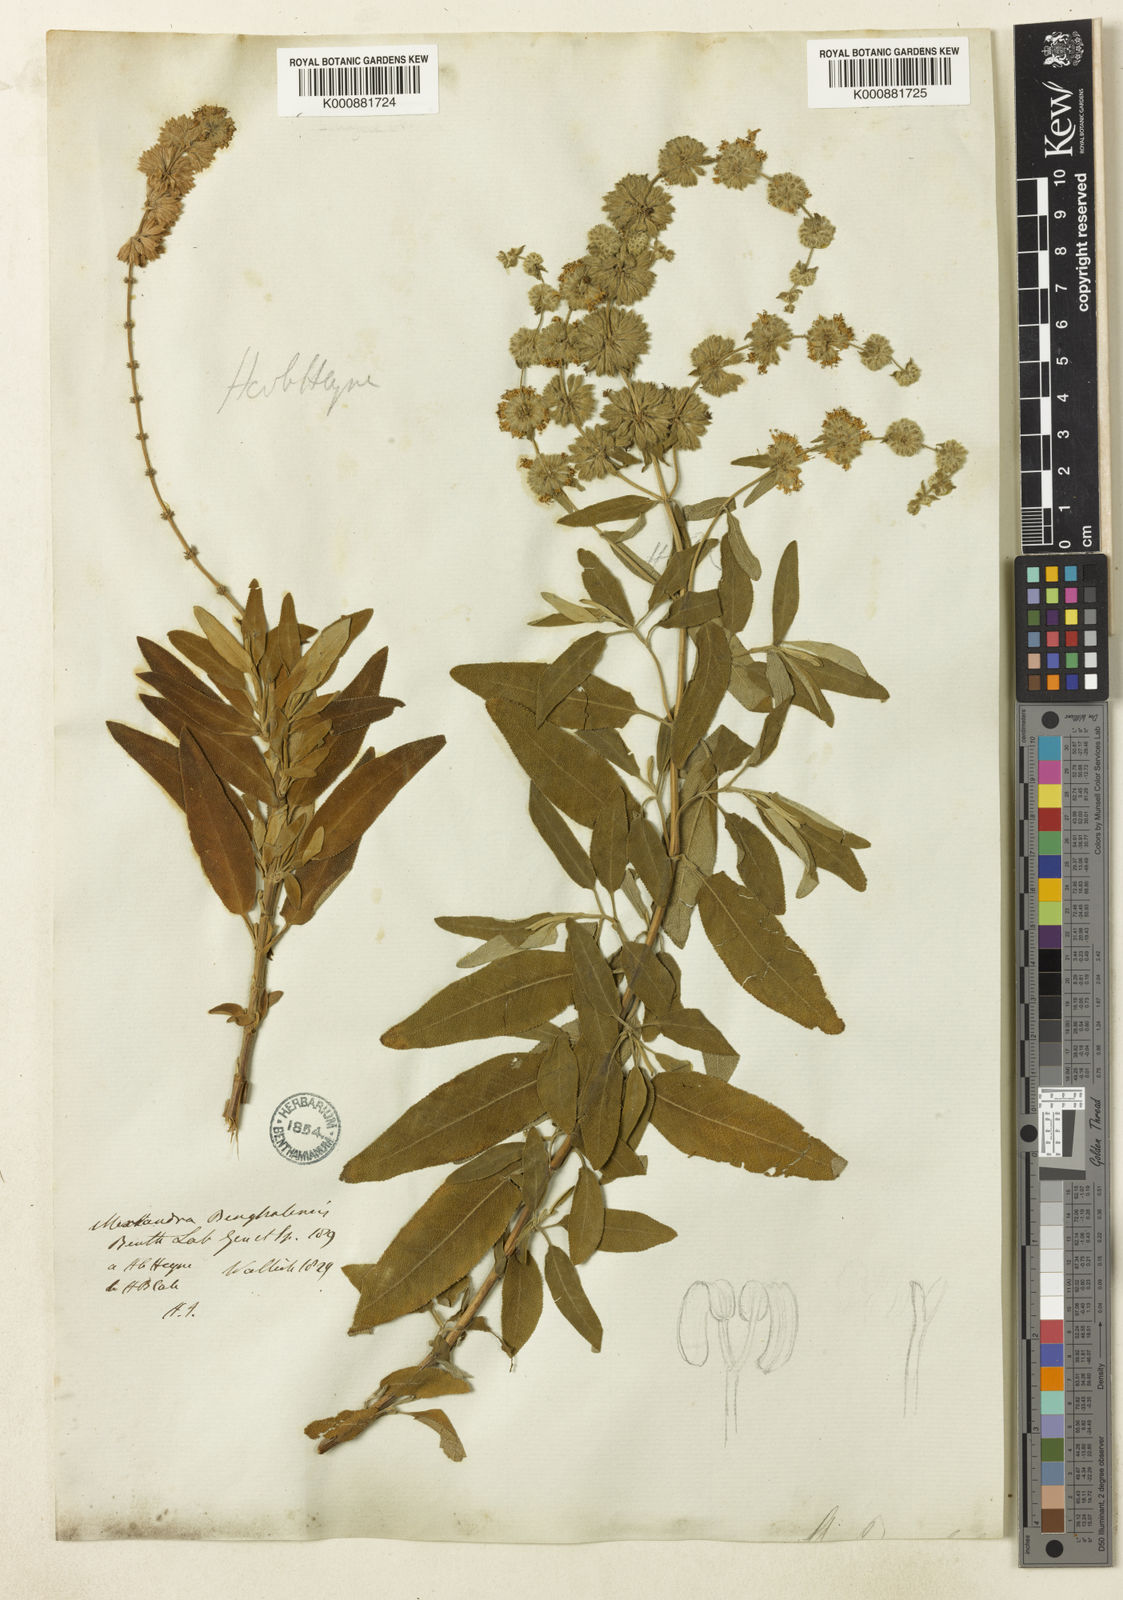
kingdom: Plantae
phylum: Tracheophyta
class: Magnoliopsida
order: Lamiales
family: Lamiaceae
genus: Salvia
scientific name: Salvia dianthera
